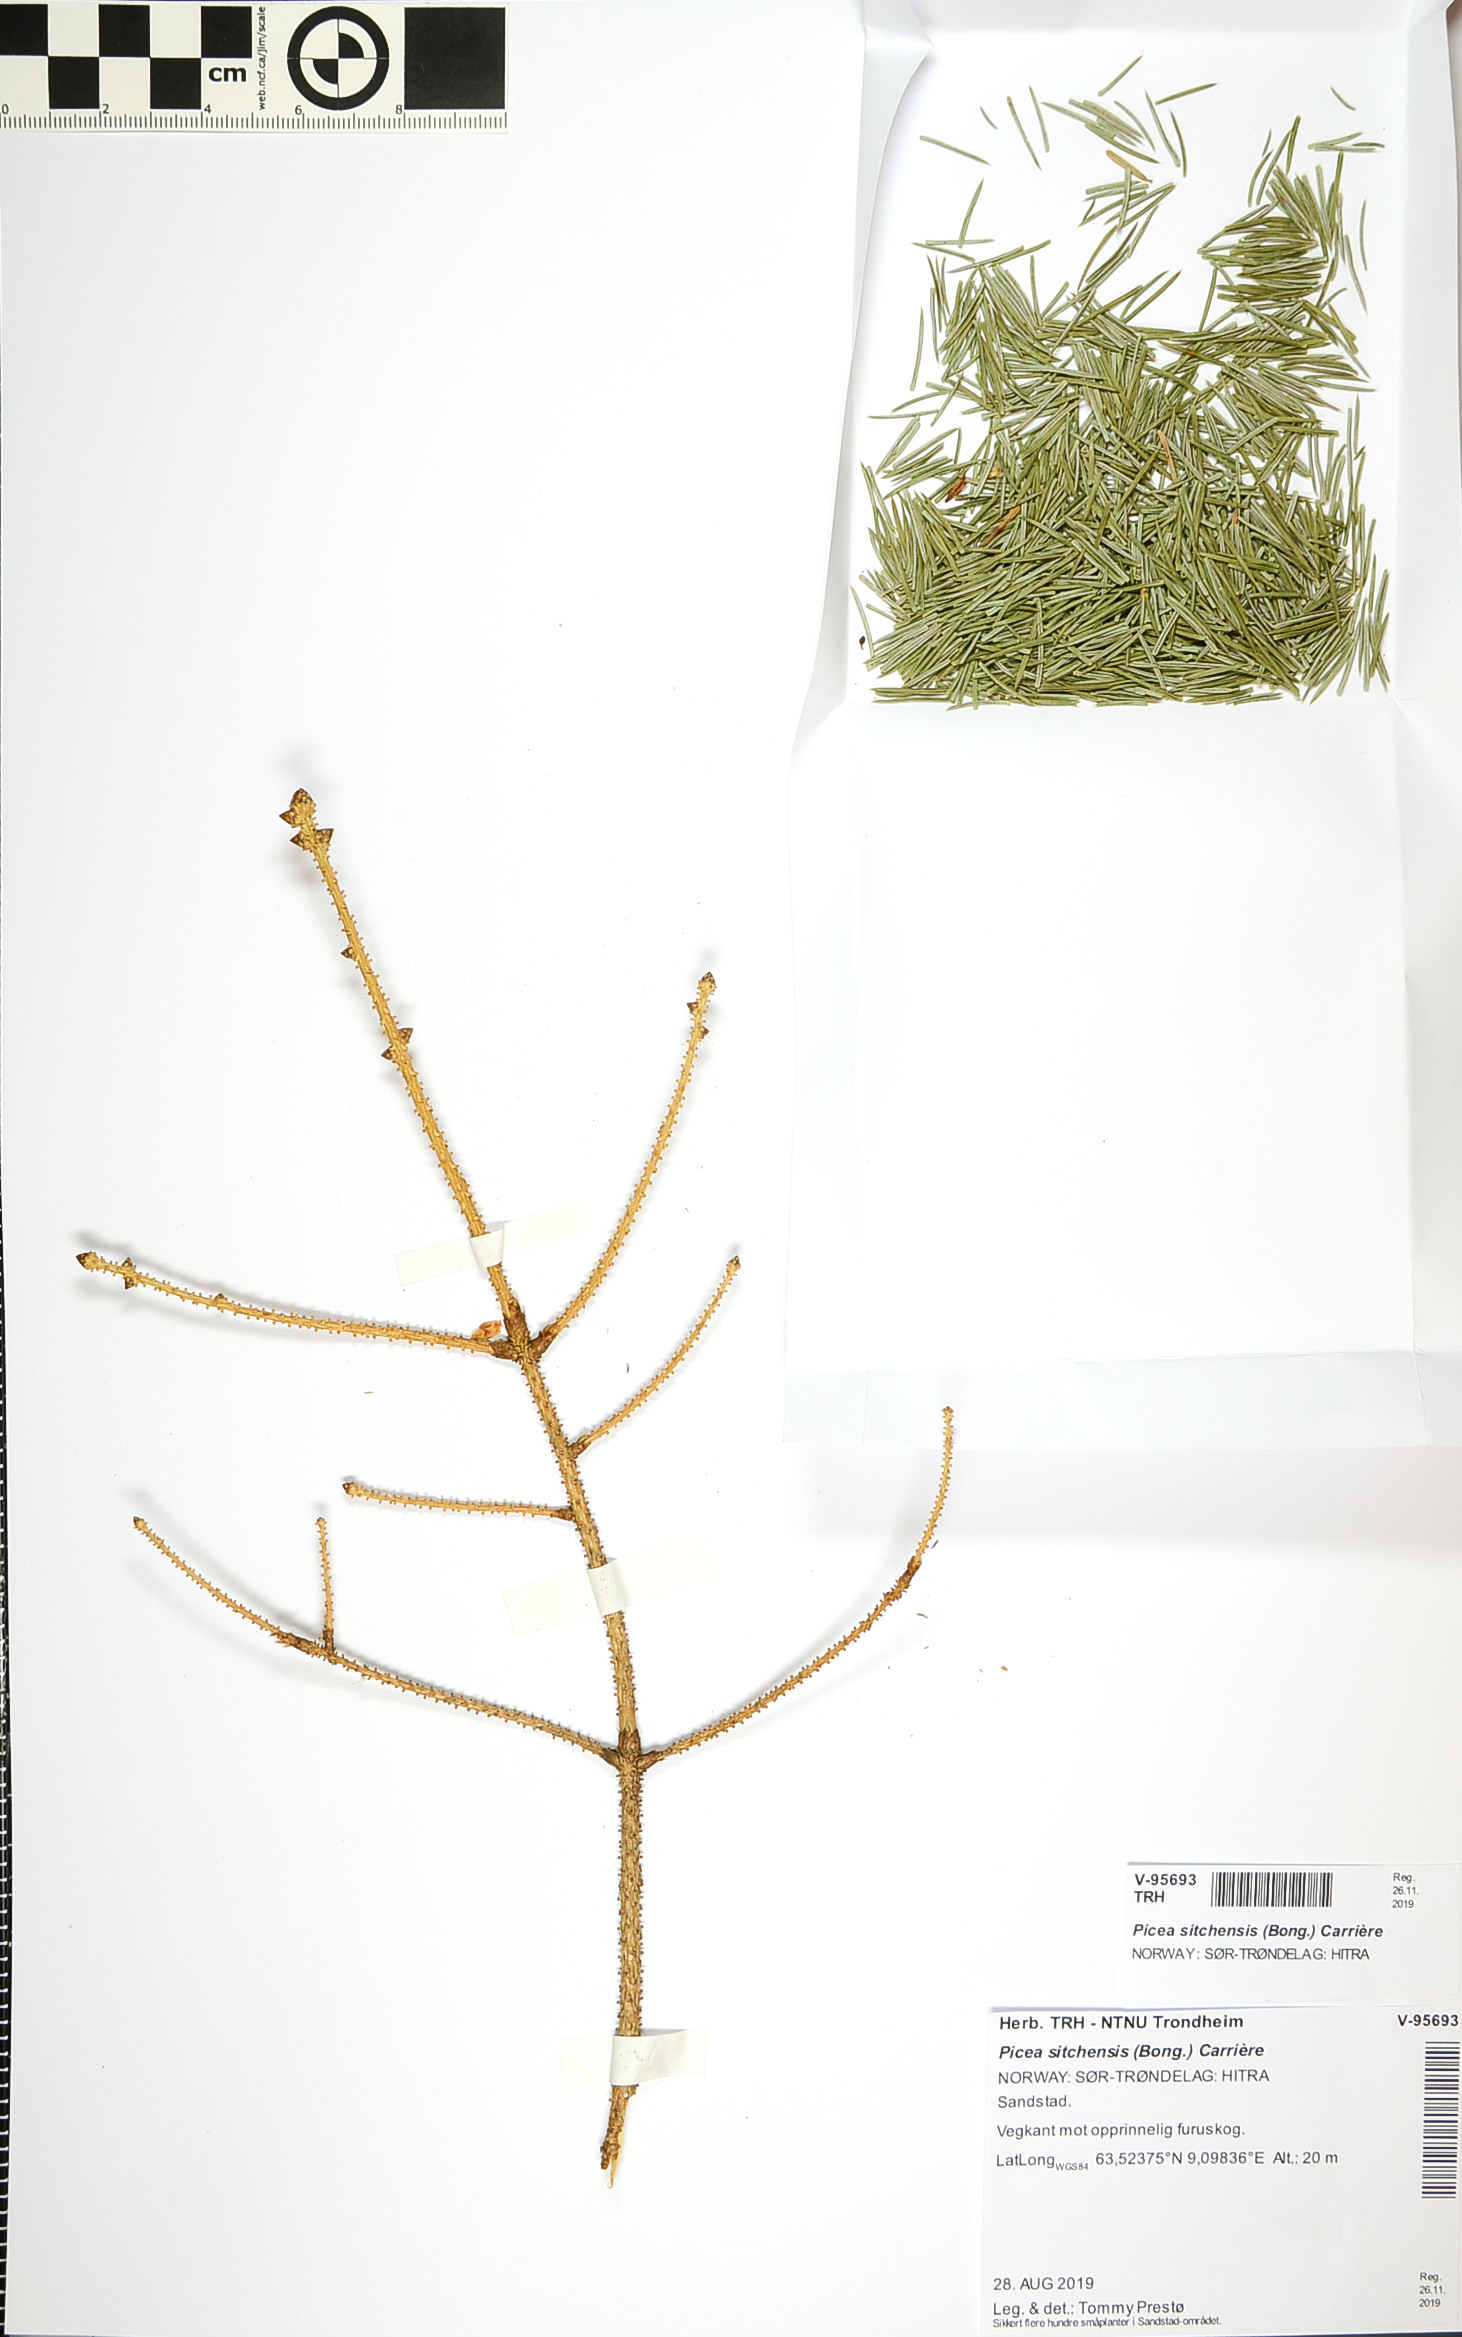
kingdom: Plantae
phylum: Tracheophyta
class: Pinopsida
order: Pinales
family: Pinaceae
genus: Picea
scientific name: Picea sitchensis
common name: Sitka spruce
